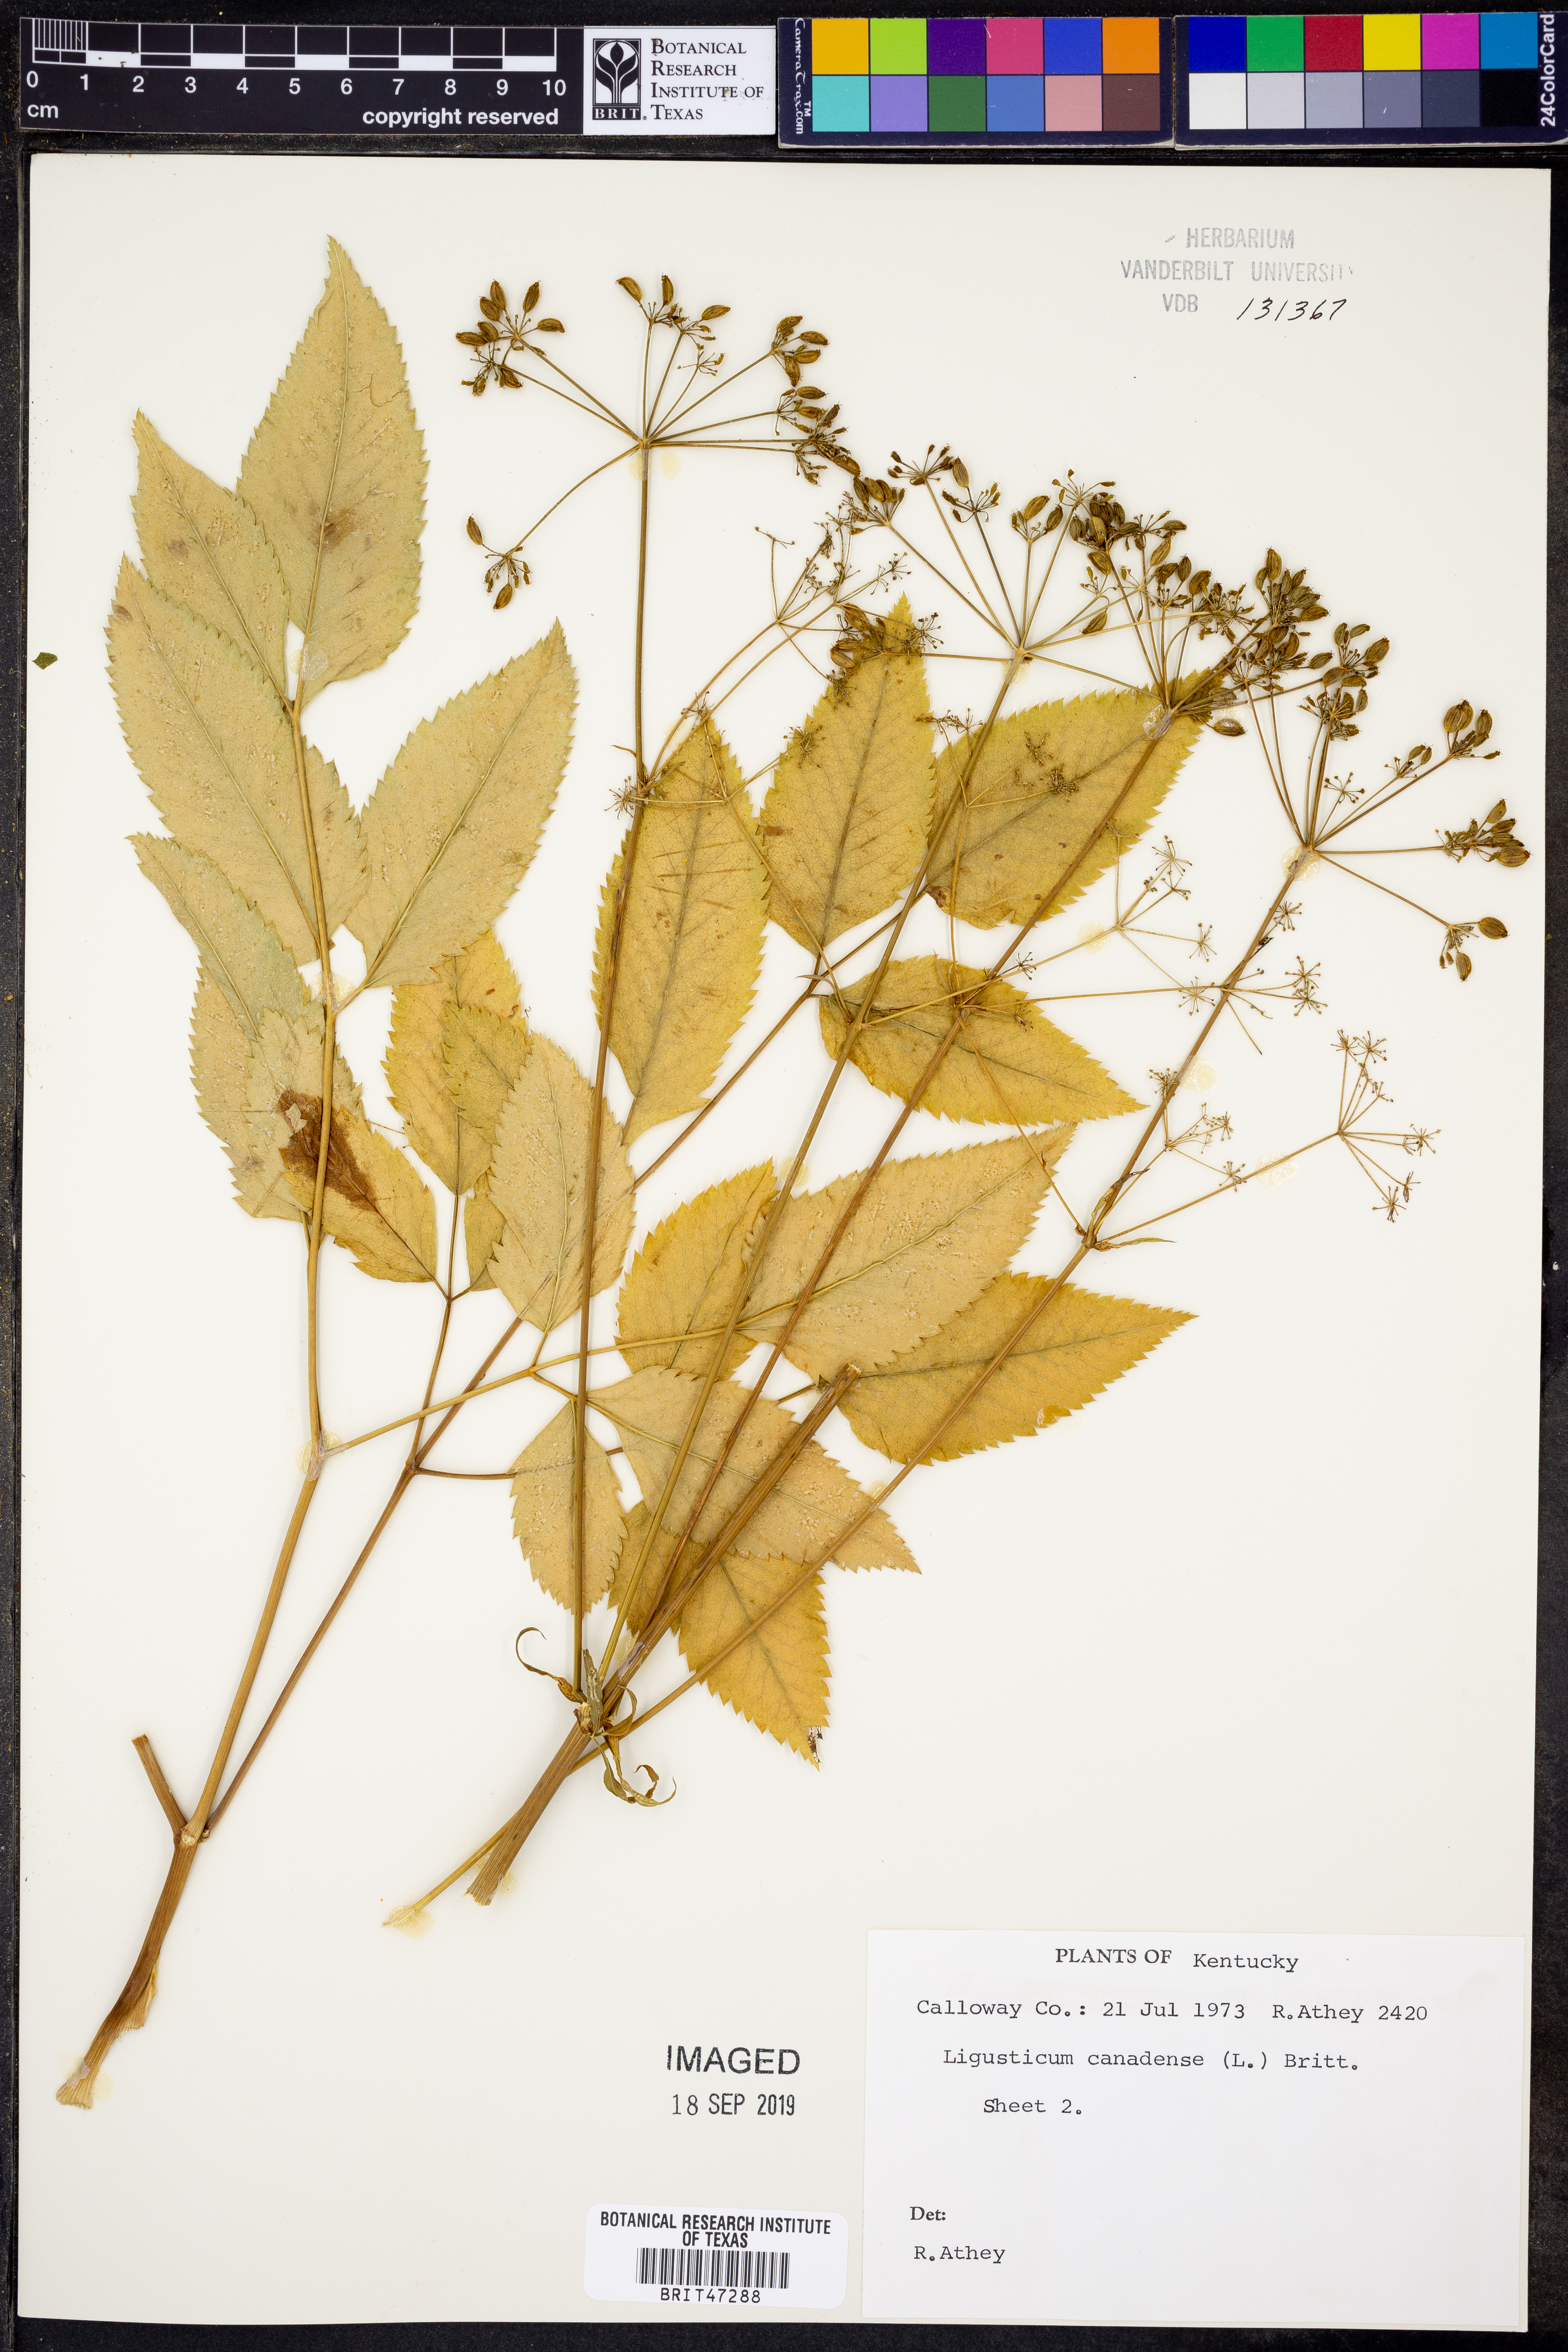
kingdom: Plantae
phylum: Tracheophyta
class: Magnoliopsida
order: Apiales
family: Apiaceae
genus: Ligusticum
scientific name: Ligusticum canadense
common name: American lovage
